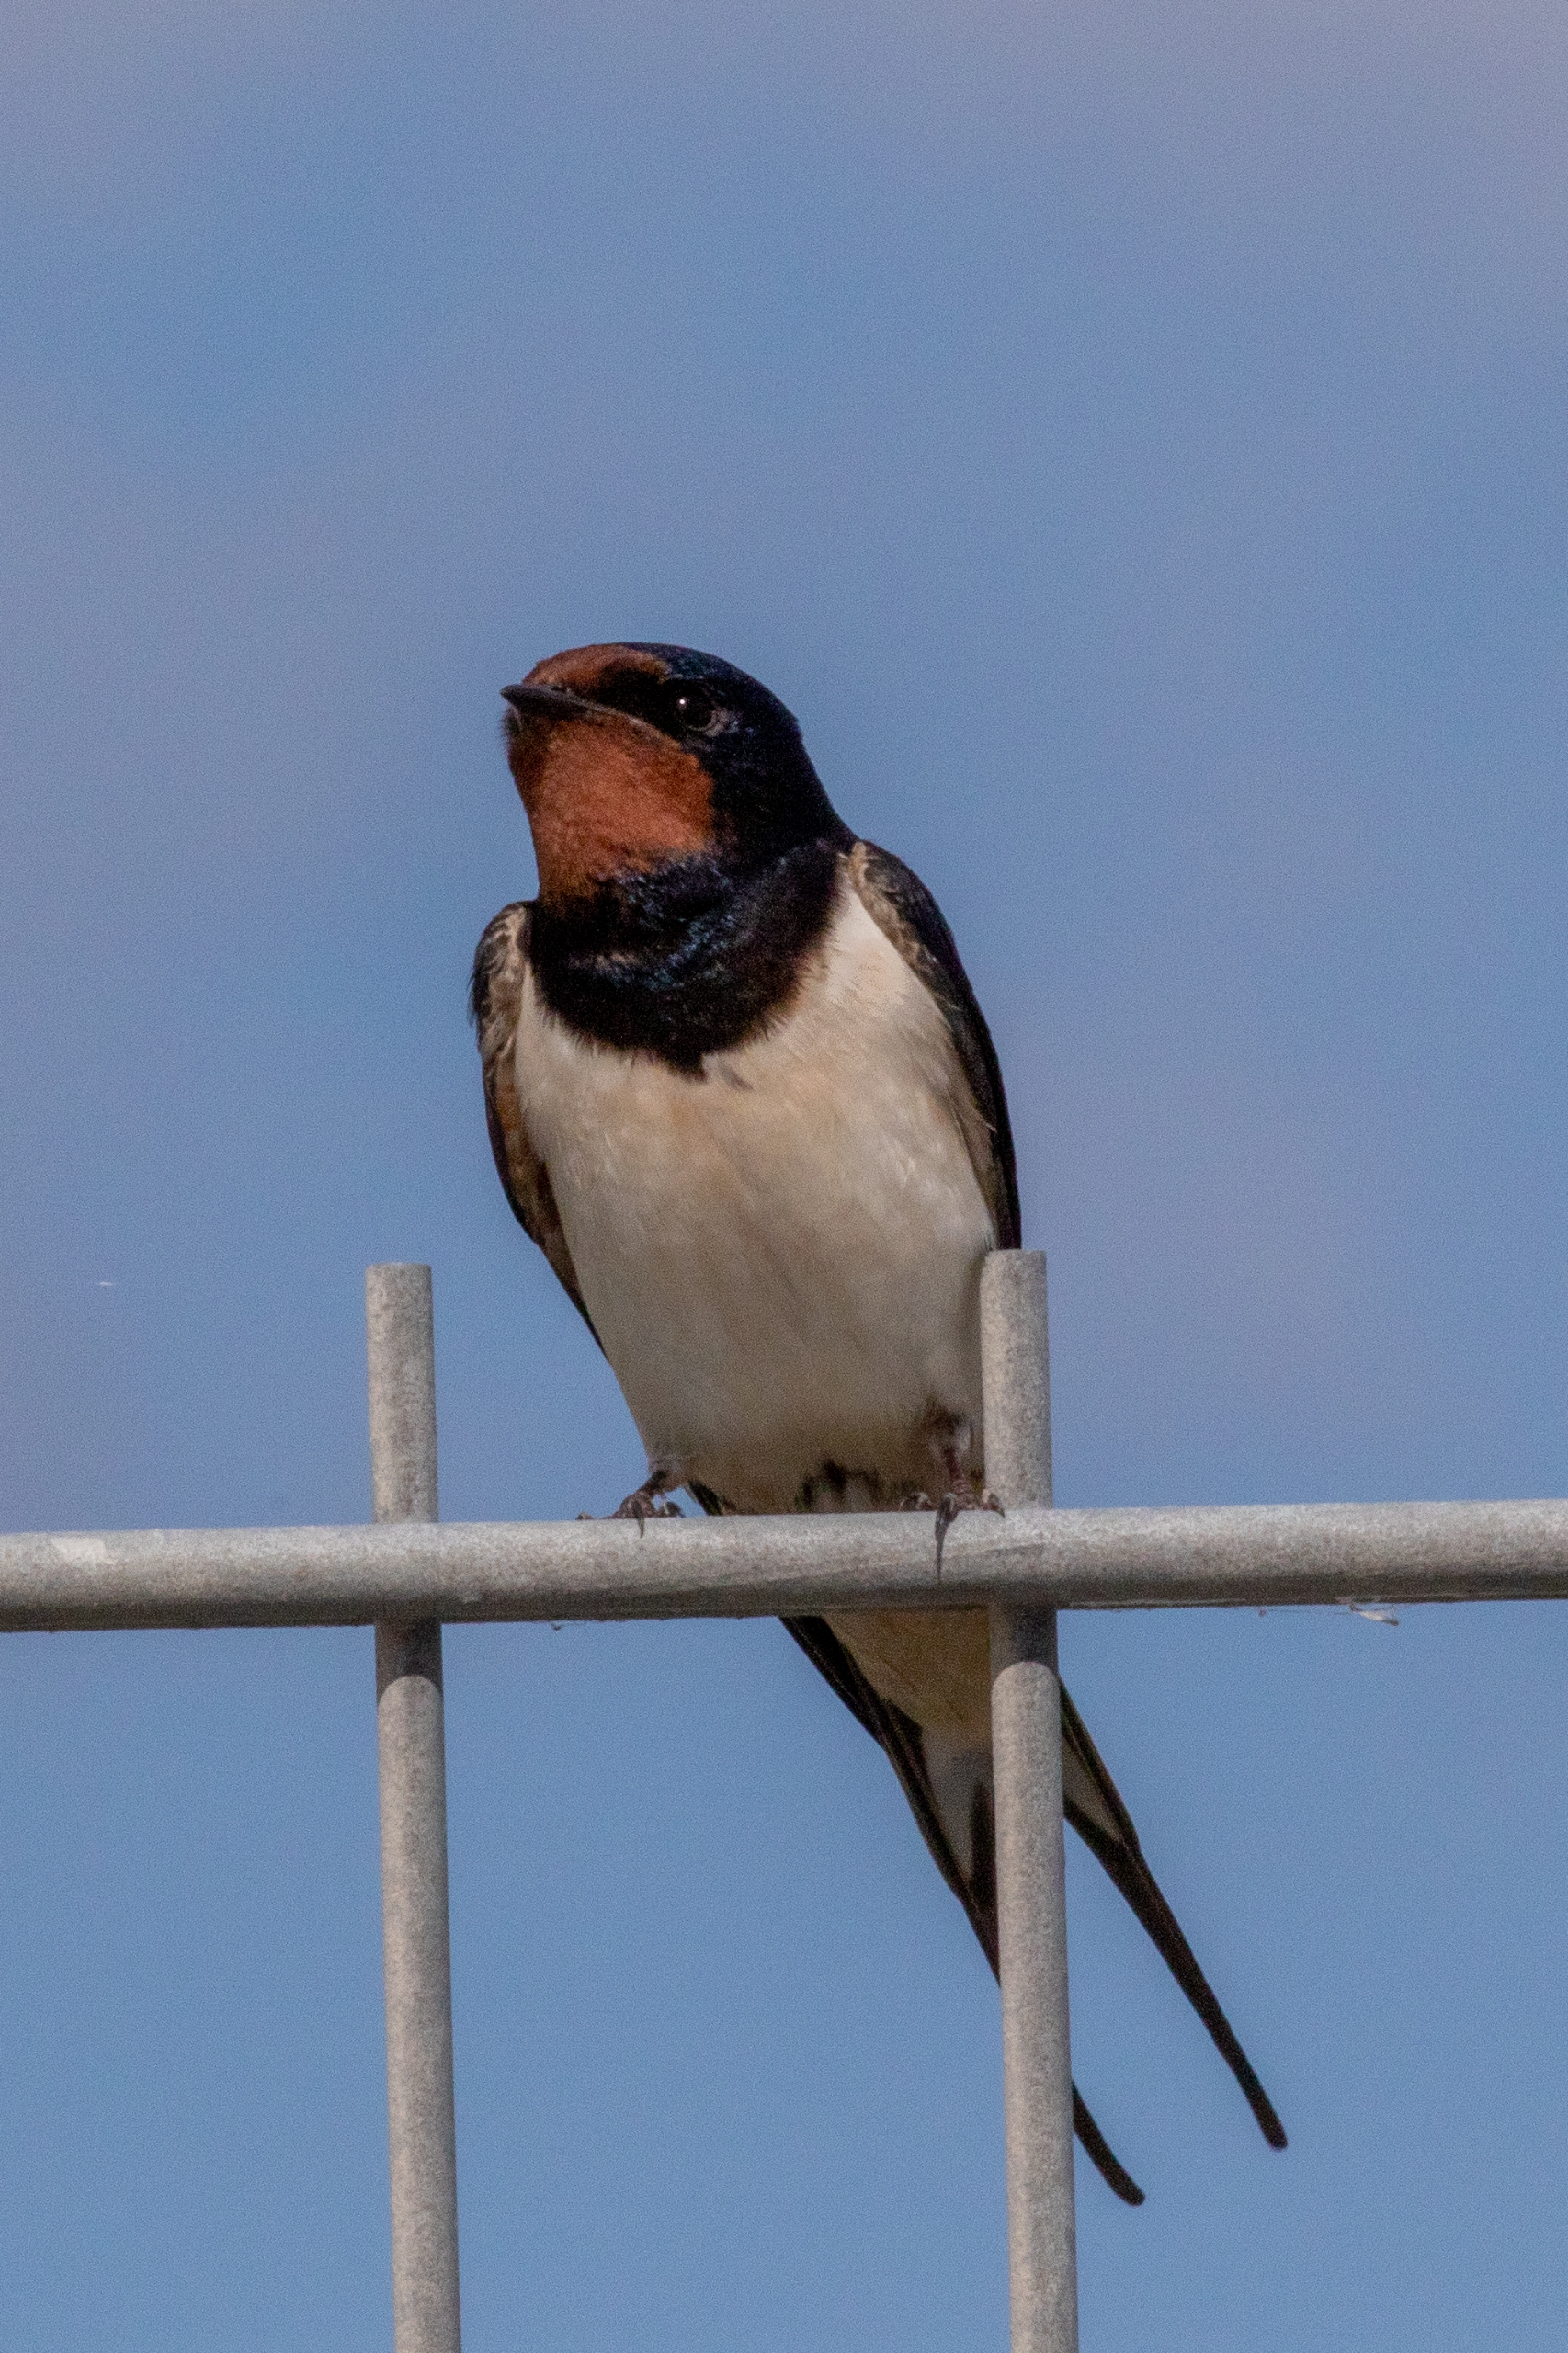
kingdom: Animalia
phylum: Chordata
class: Aves
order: Passeriformes
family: Hirundinidae
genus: Hirundo
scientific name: Hirundo rustica
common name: Landsvale
